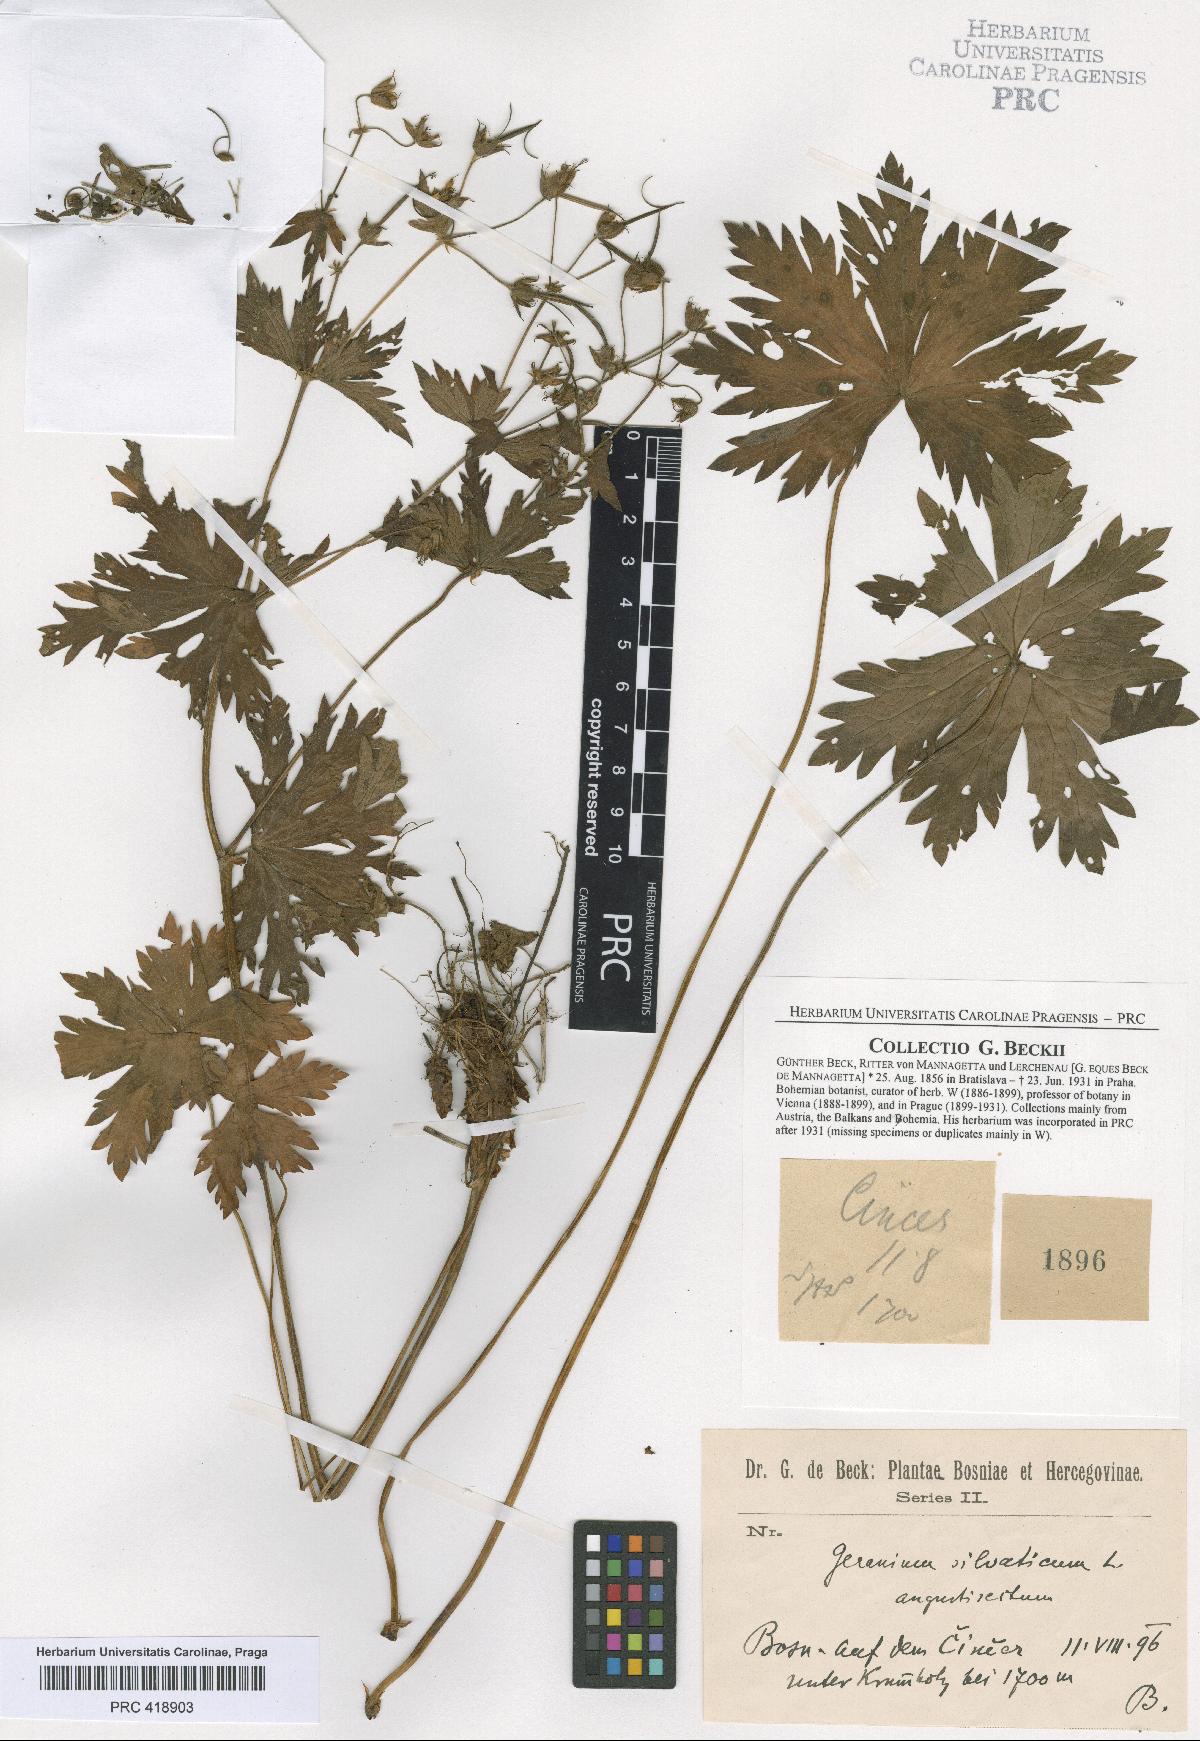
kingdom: Plantae
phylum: Tracheophyta
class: Magnoliopsida
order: Geraniales
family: Geraniaceae
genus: Geranium
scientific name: Geranium sylvaticum
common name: Wood crane's-bill
